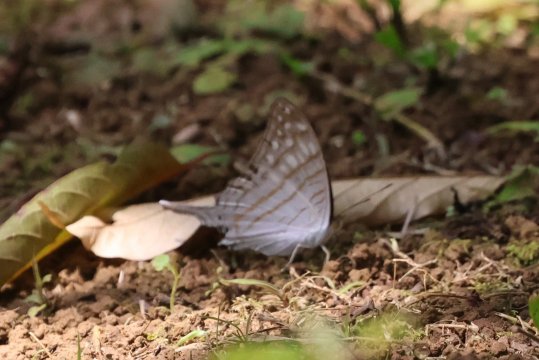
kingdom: Animalia
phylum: Arthropoda
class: Insecta
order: Lepidoptera
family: Nymphalidae
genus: Marpesia
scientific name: Marpesia merops
